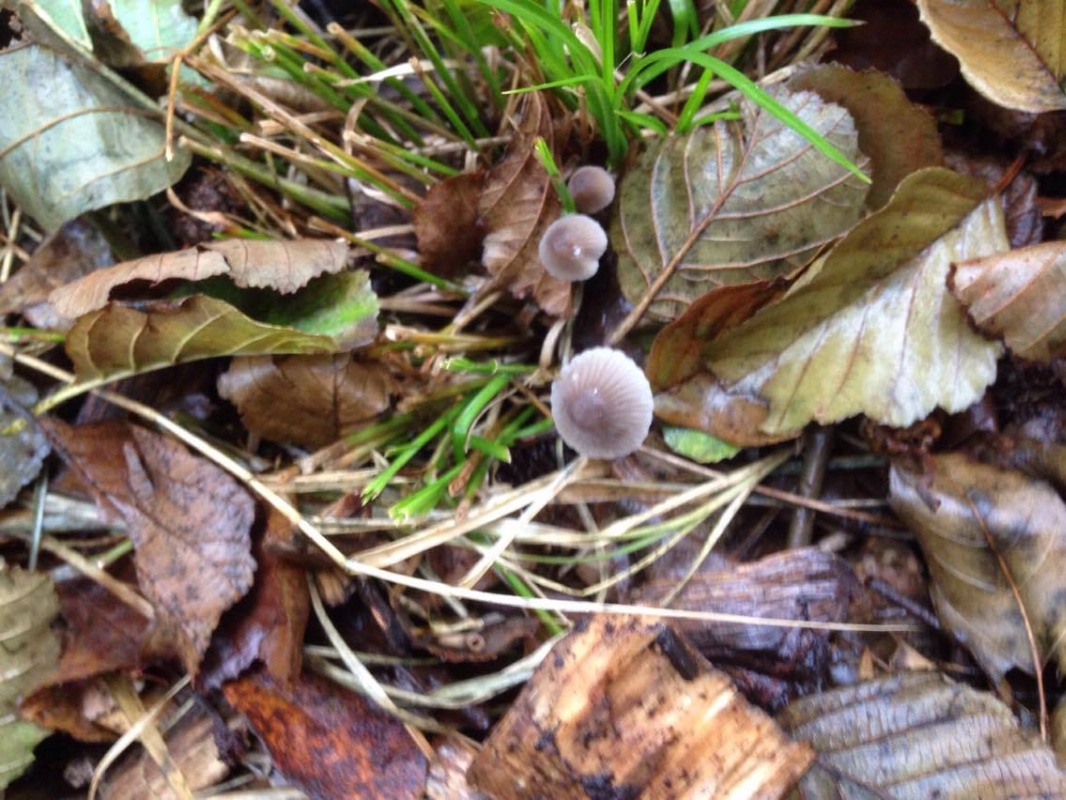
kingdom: Fungi
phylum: Basidiomycota
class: Agaricomycetes
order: Agaricales
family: Mycenaceae
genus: Mycena
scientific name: Mycena polygramma
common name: mangestribet huesvamp
